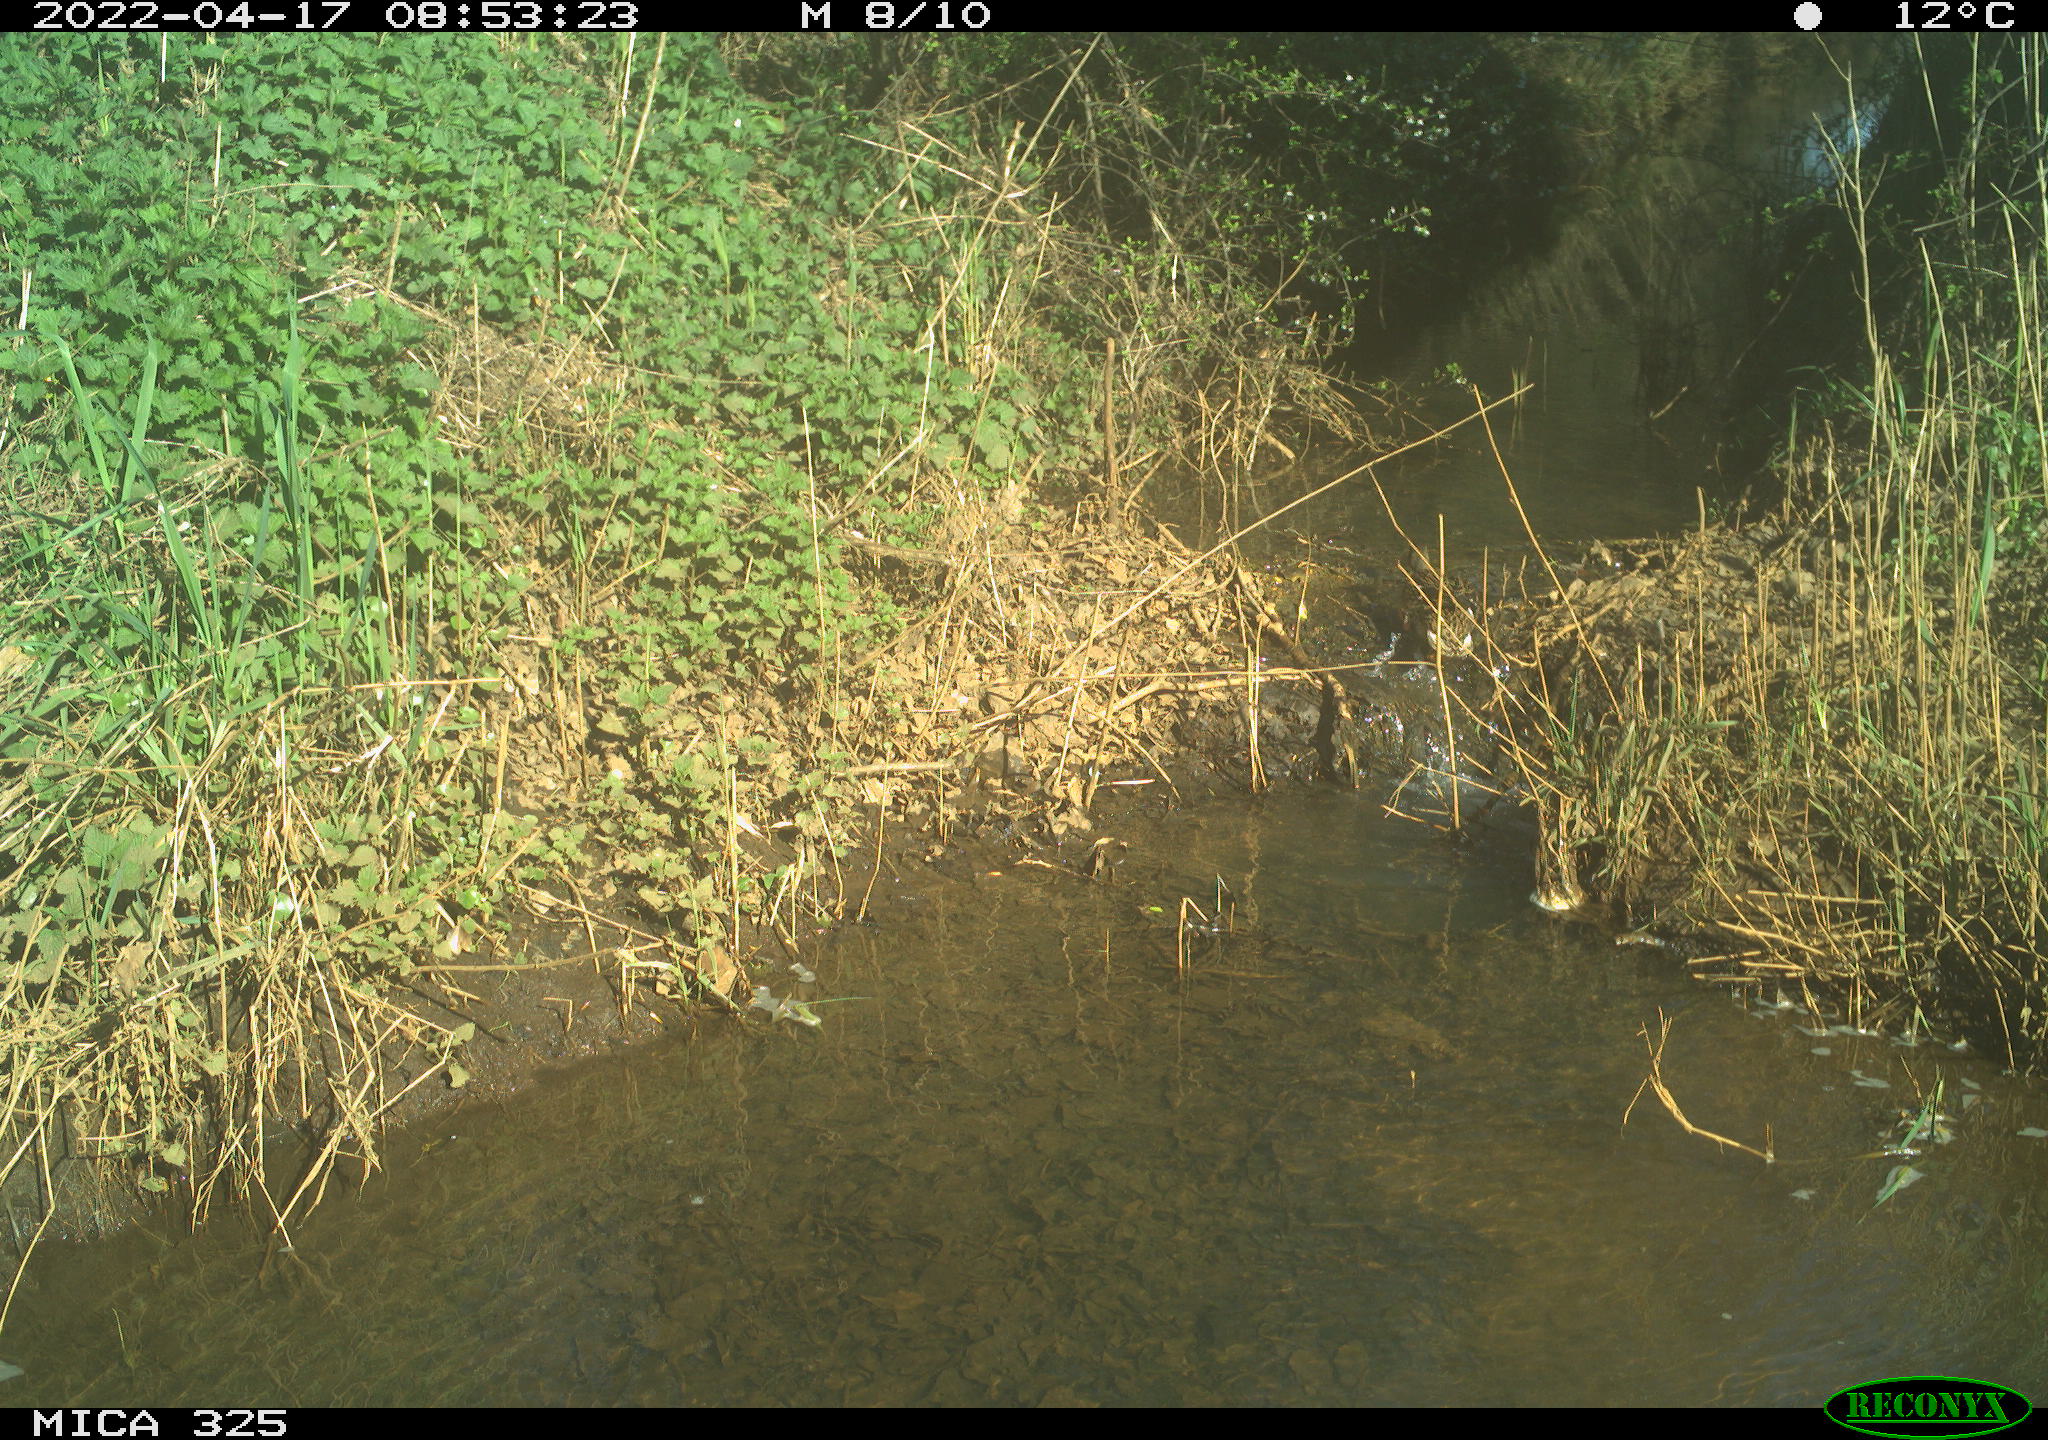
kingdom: Animalia
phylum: Chordata
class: Aves
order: Anseriformes
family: Anatidae
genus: Anas
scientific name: Anas platyrhynchos
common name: Mallard
